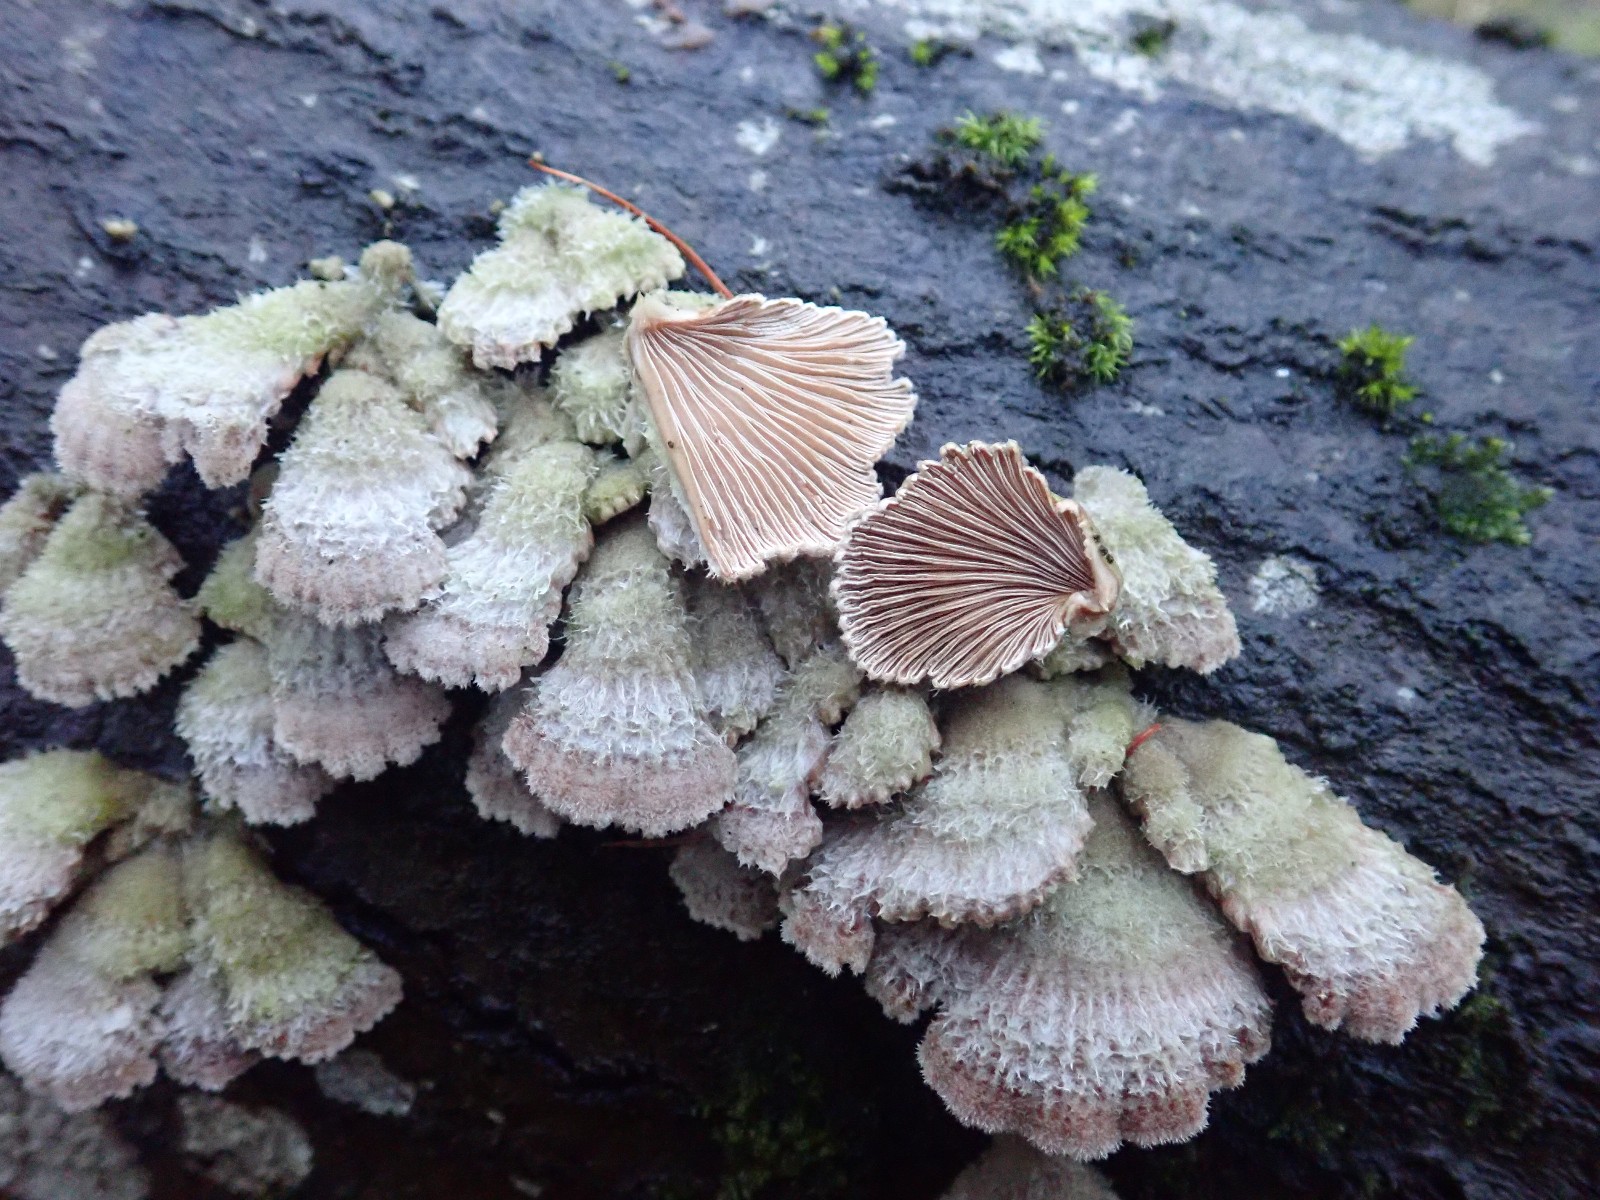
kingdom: Fungi
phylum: Basidiomycota
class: Agaricomycetes
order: Agaricales
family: Schizophyllaceae
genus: Schizophyllum
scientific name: Schizophyllum commune
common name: kløvblad
